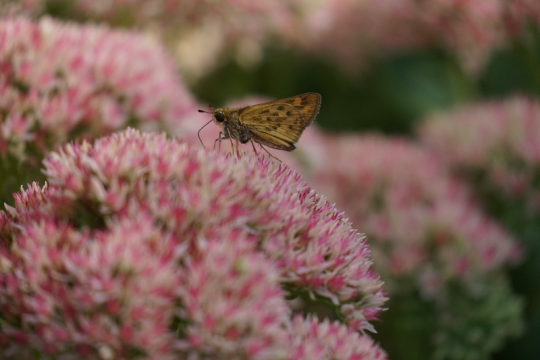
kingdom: Animalia
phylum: Arthropoda
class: Insecta
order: Lepidoptera
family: Hesperiidae
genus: Hylephila
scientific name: Hylephila phyleus
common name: Fiery Skipper
